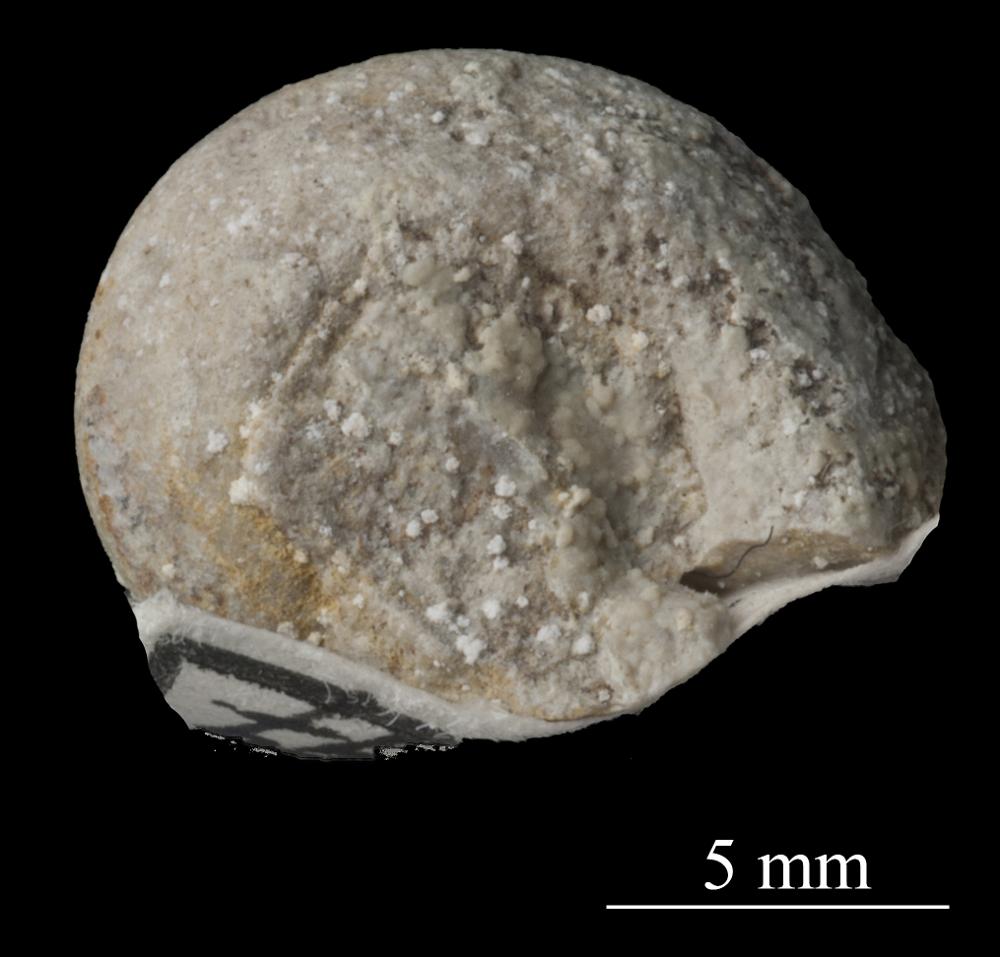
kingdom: Animalia
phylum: Mollusca
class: Gastropoda
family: Bellerophontidae
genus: Bellerophon
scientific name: Bellerophon
